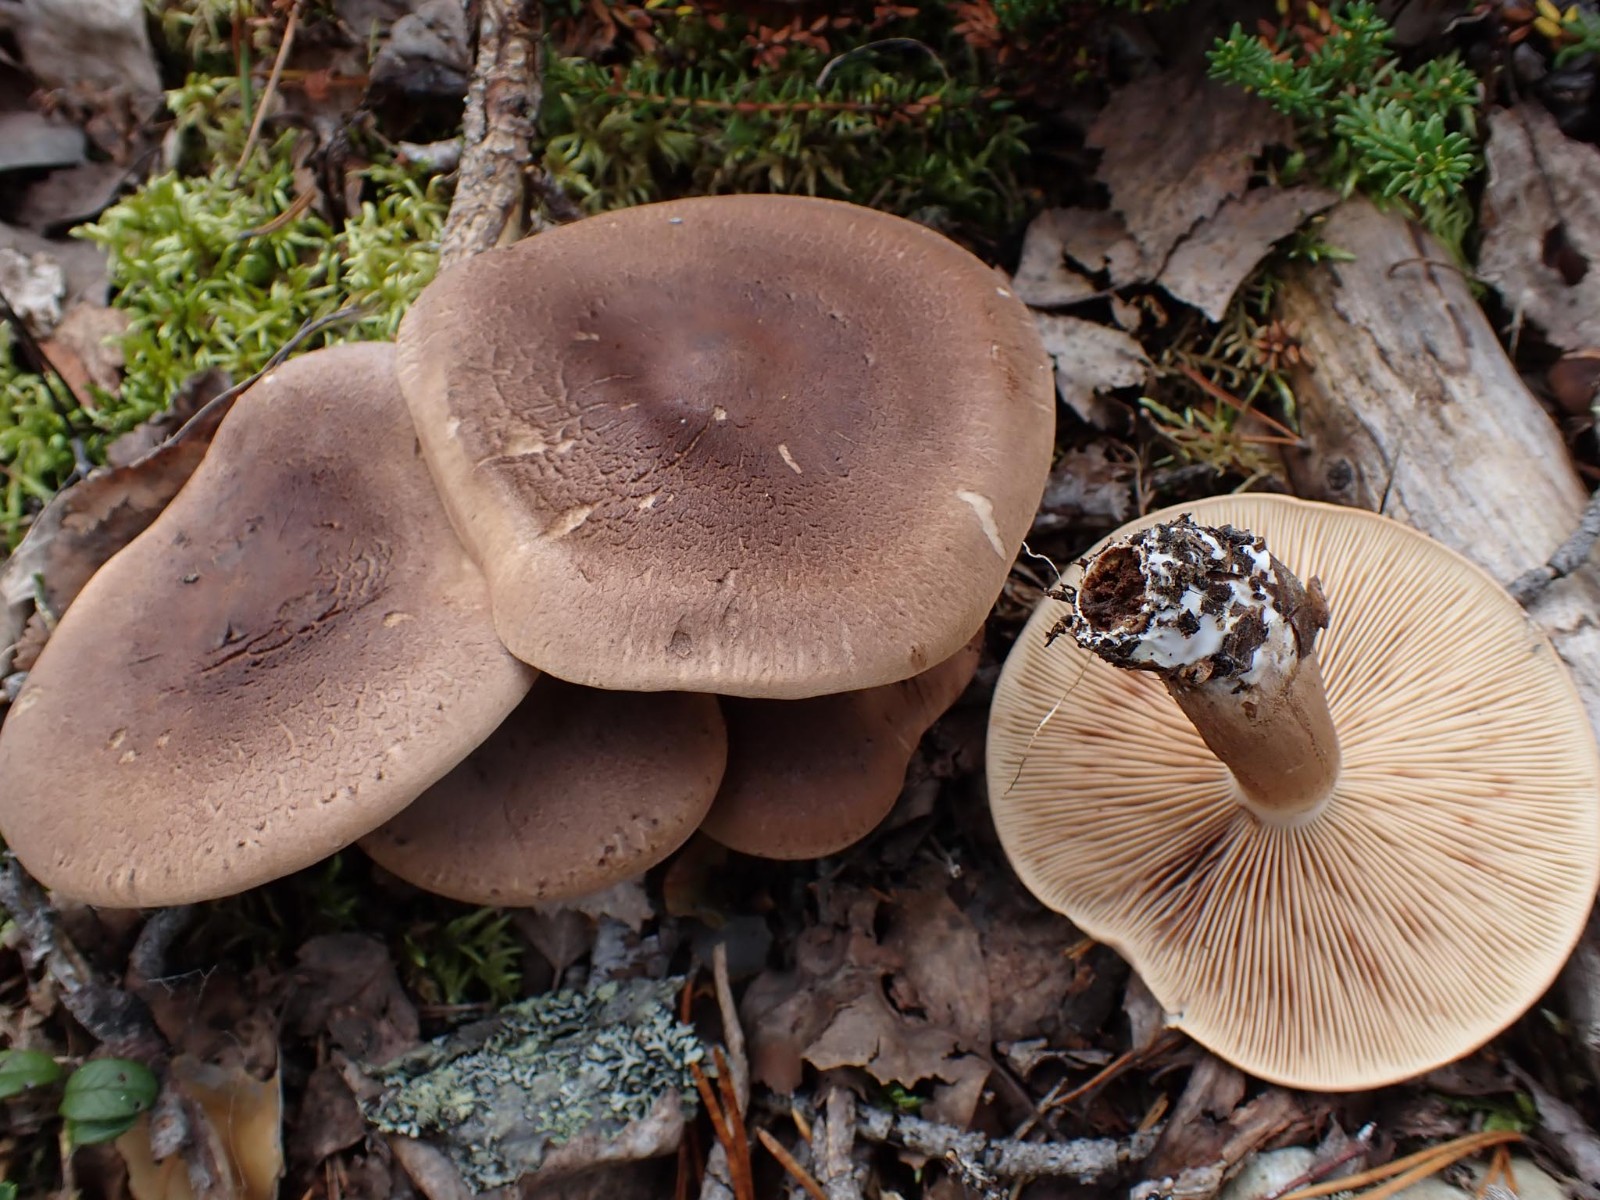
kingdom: Fungi
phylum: Basidiomycota
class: Agaricomycetes
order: Agaricales
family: Tricholomataceae
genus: Tricholoma
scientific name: Tricholoma imbricatum
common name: skællet ridderhat
